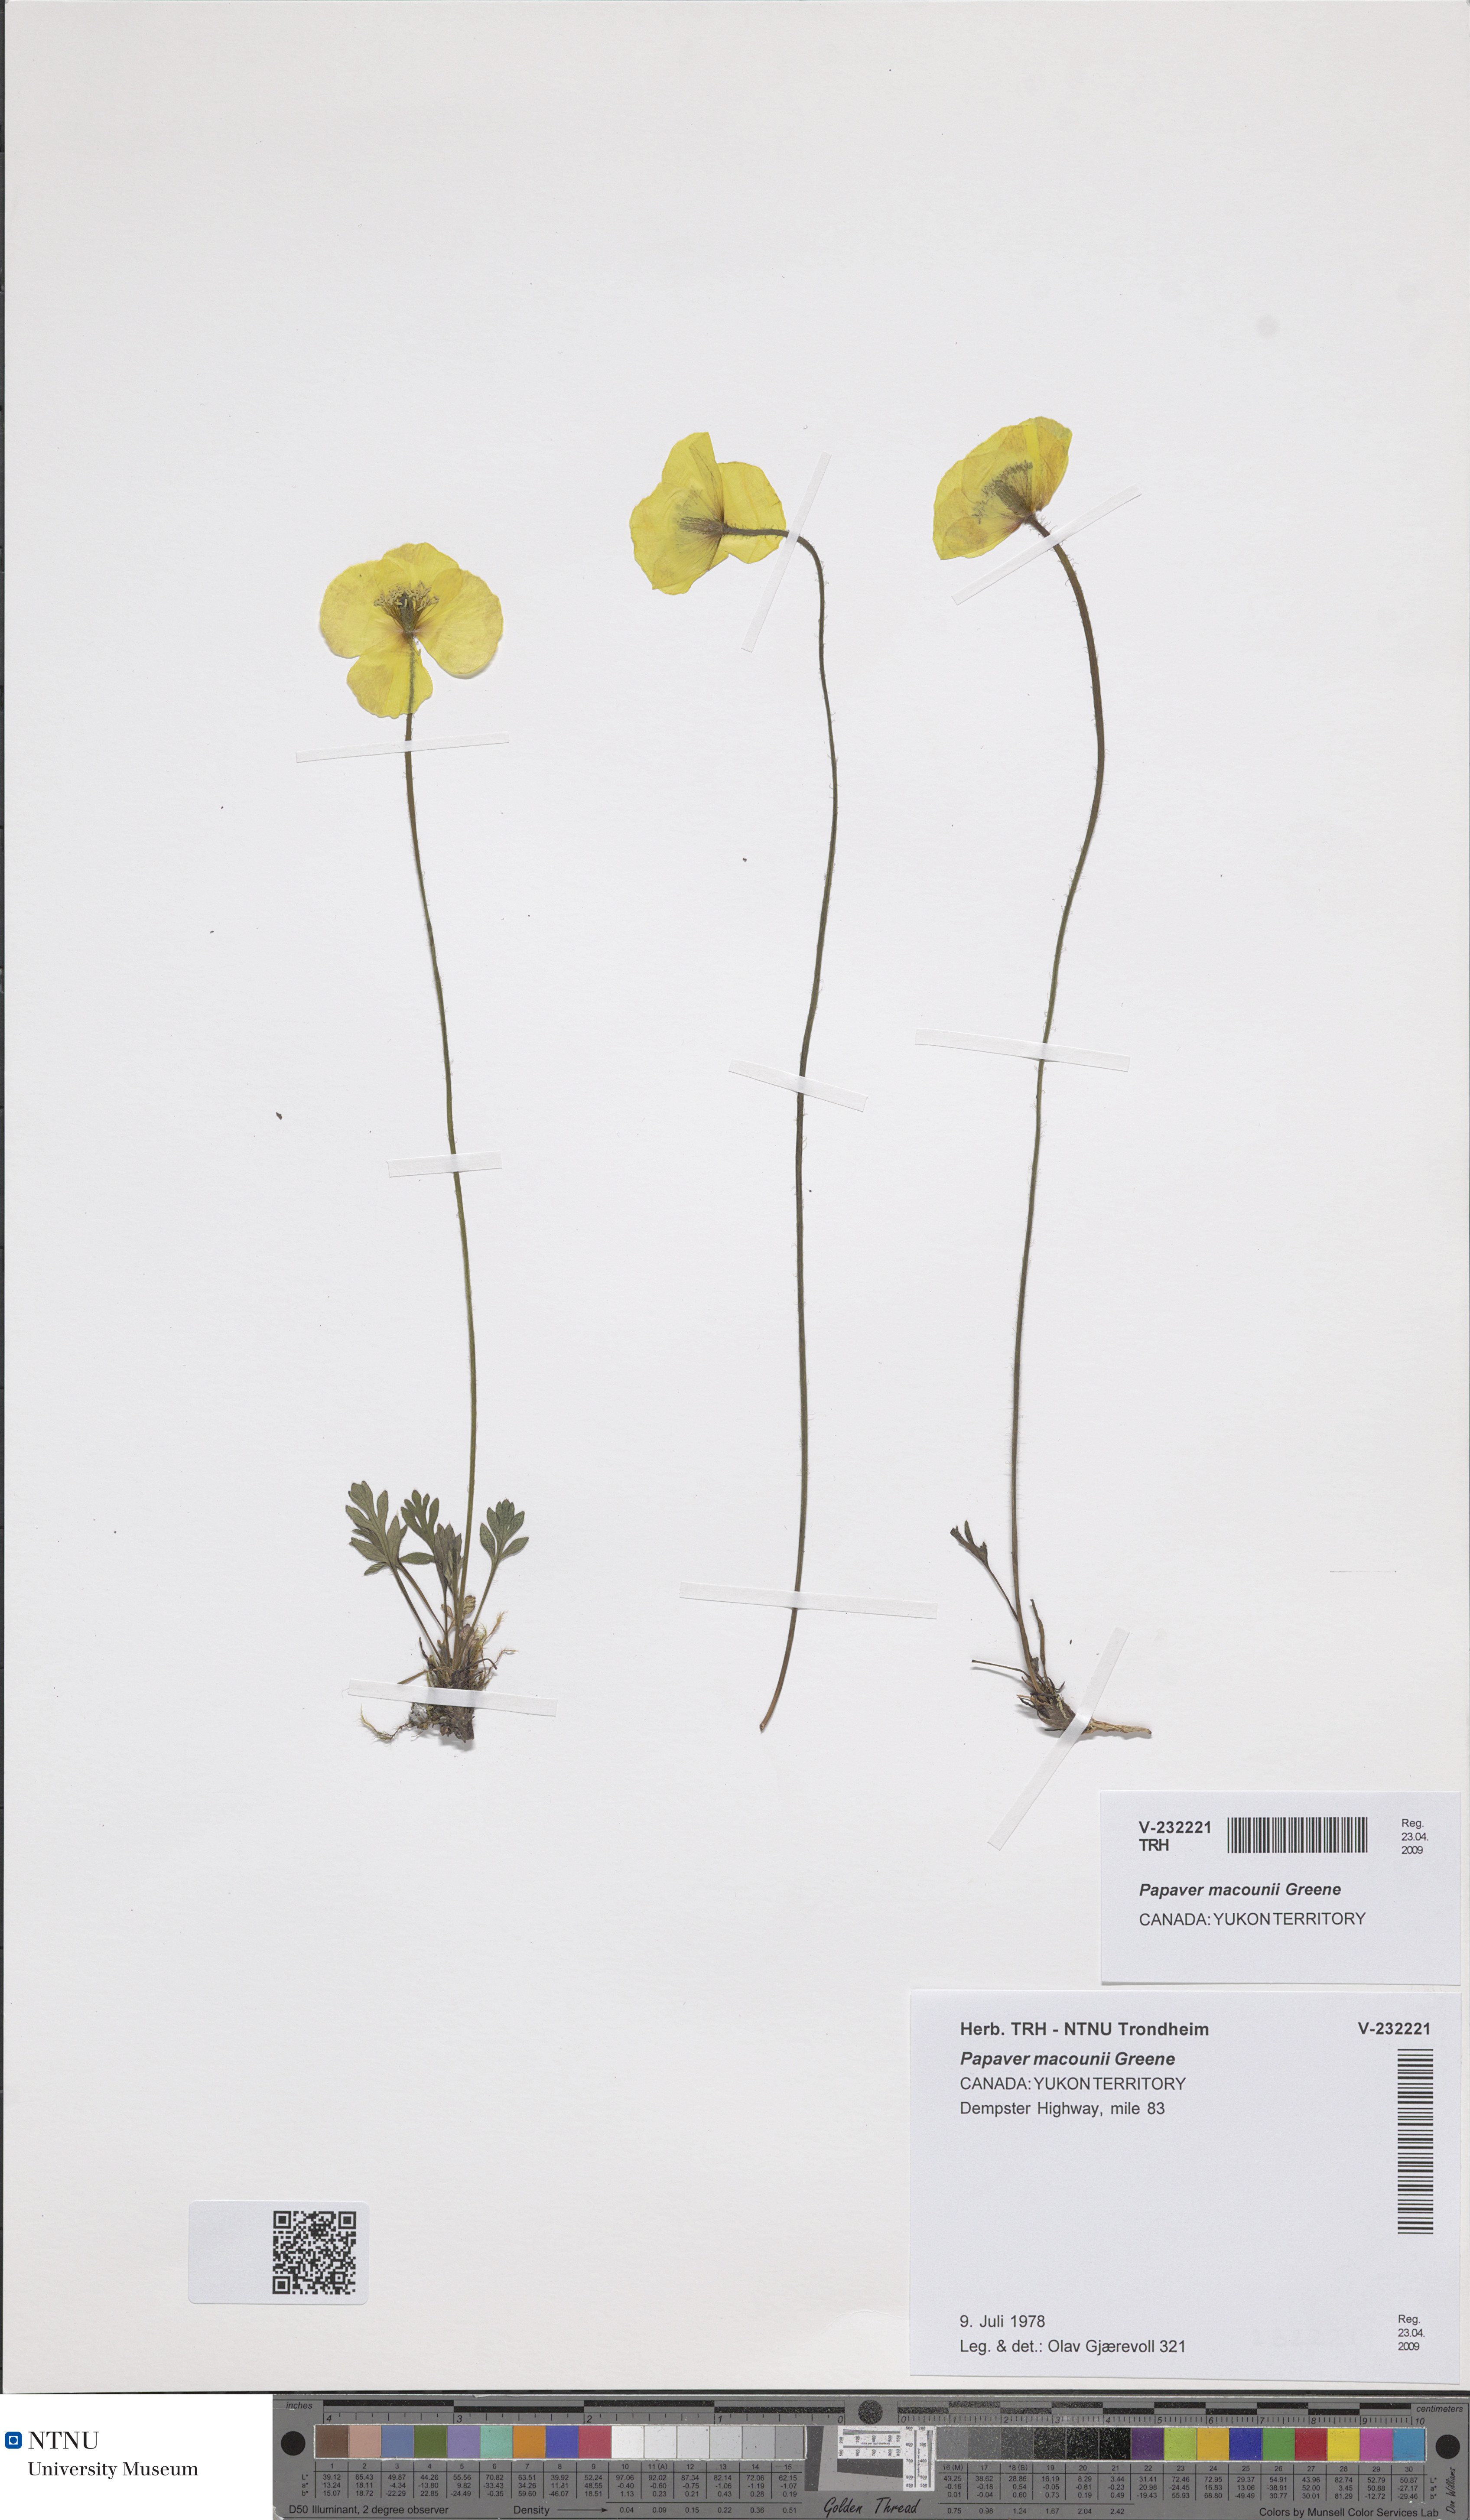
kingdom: Plantae
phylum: Tracheophyta
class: Magnoliopsida
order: Ranunculales
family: Papaveraceae
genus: Papaver
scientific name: Papaver macounii
